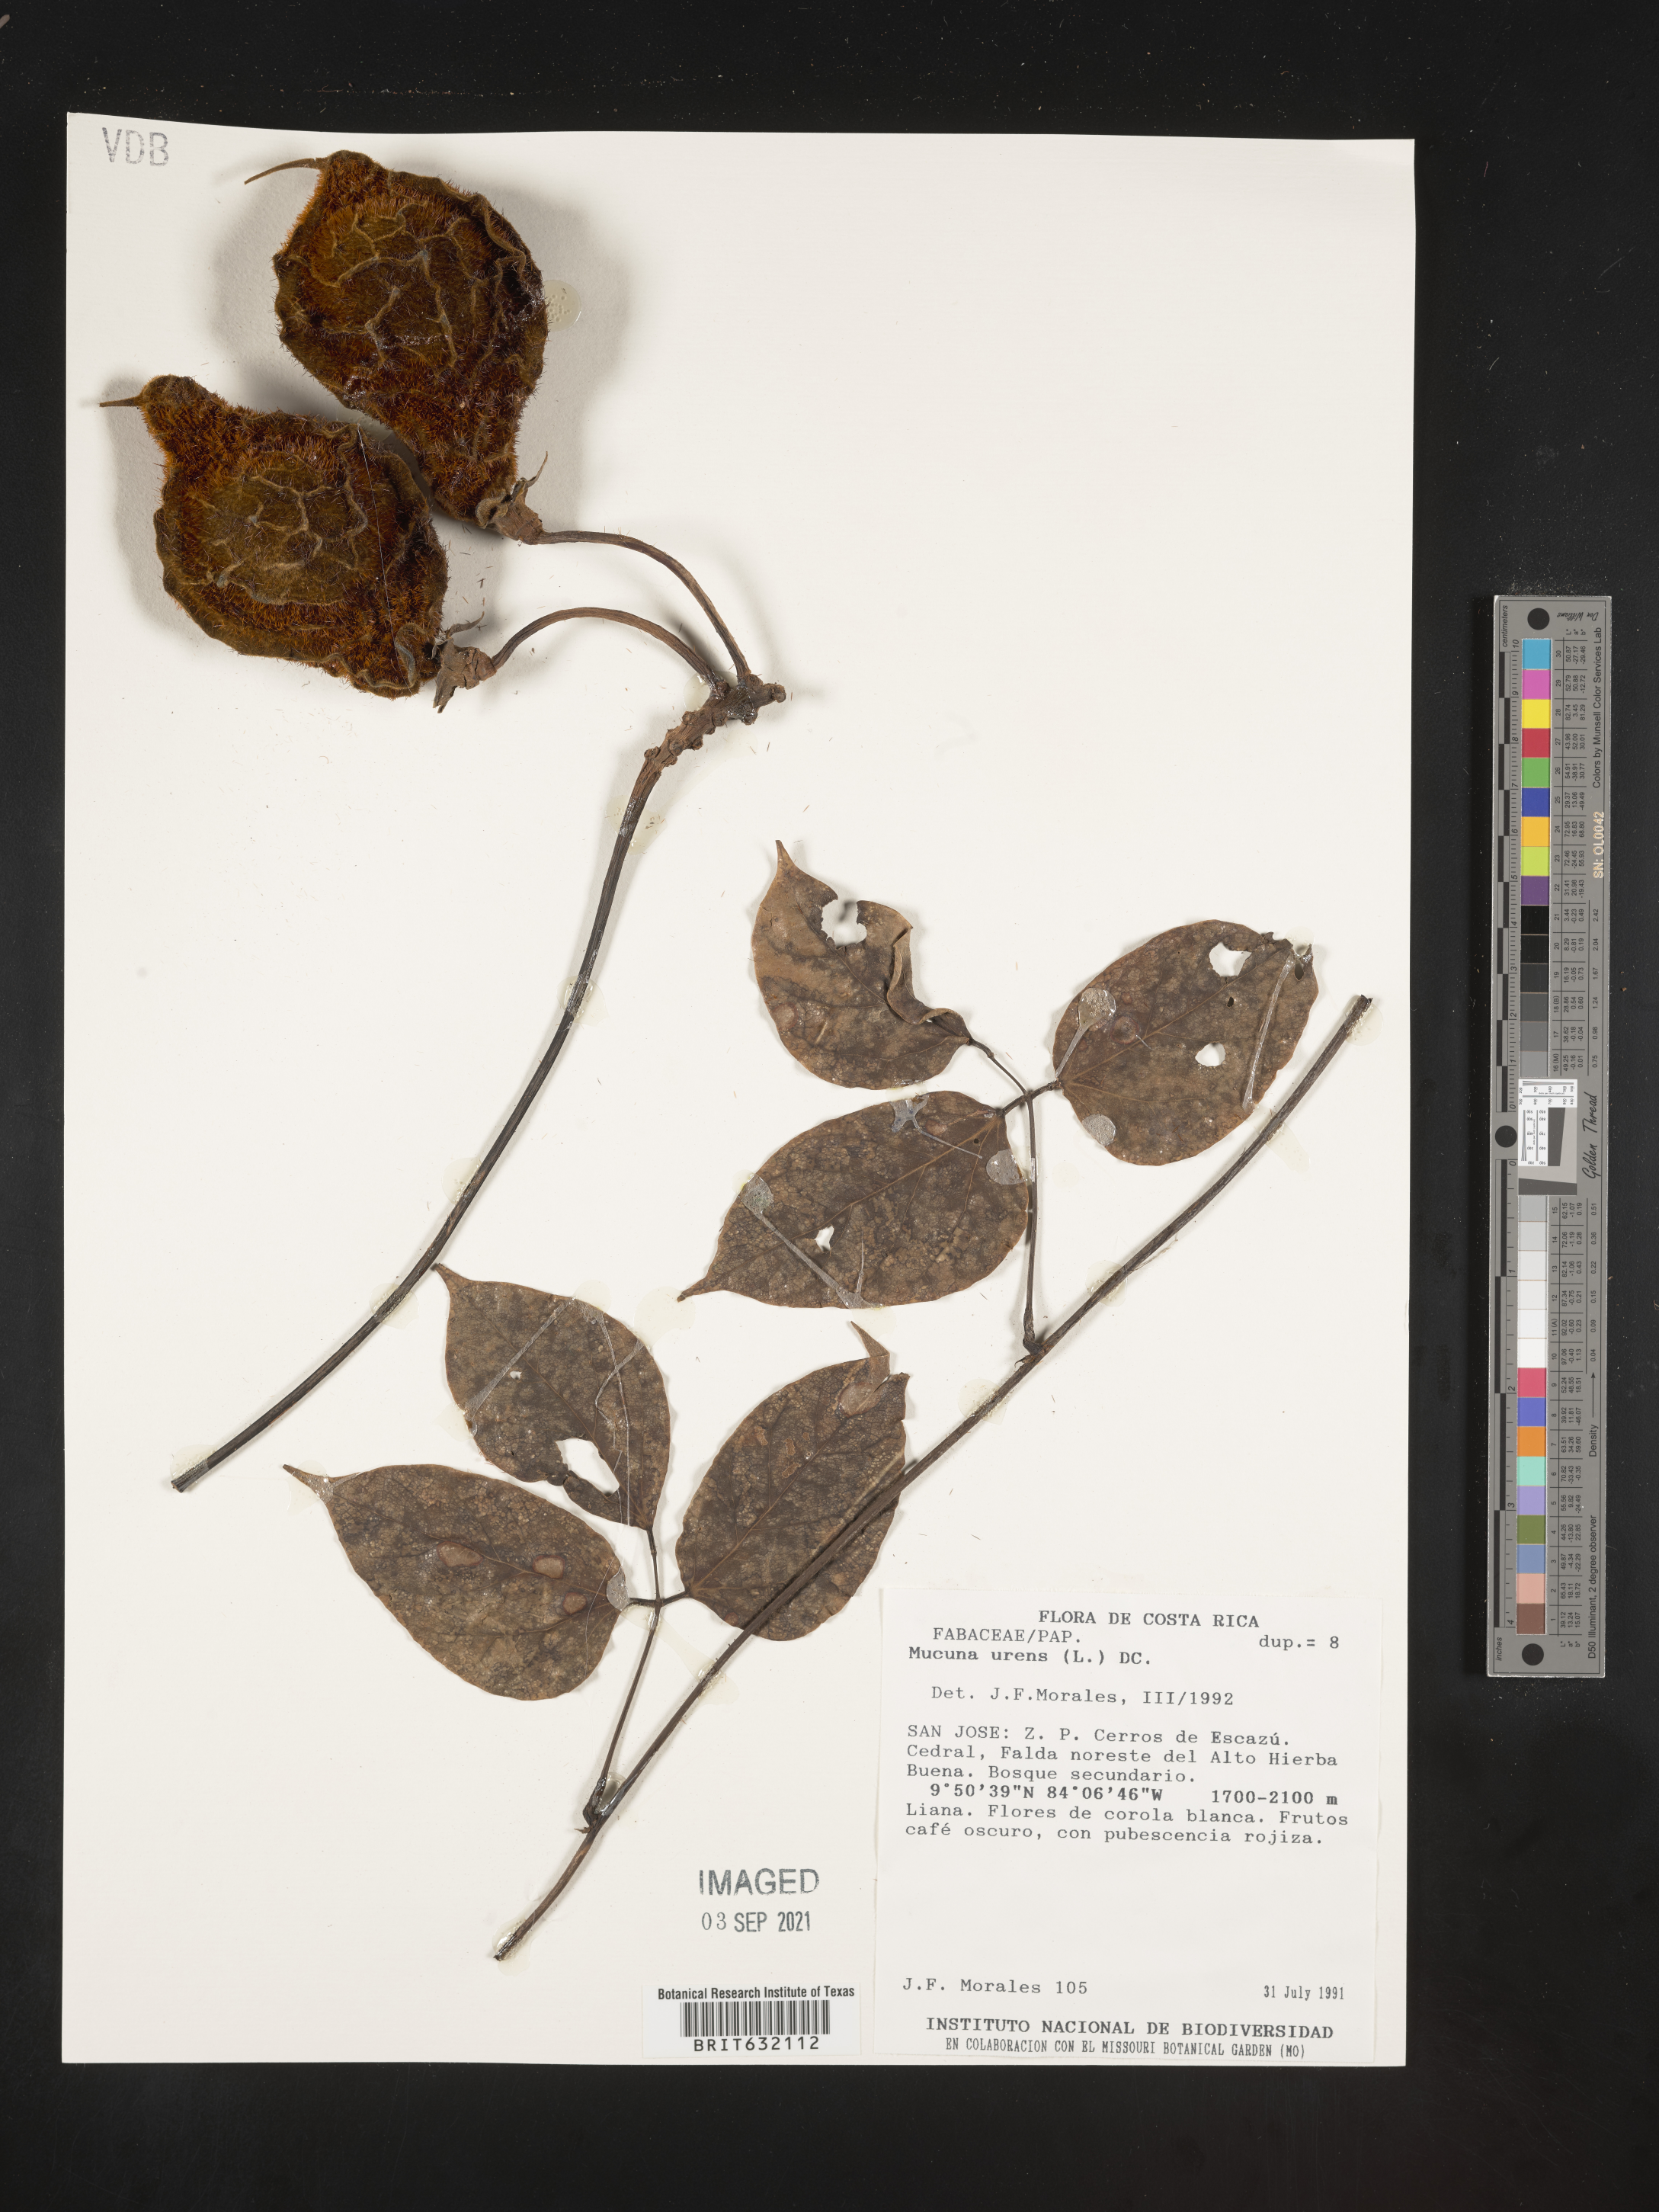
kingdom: Plantae
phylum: Tracheophyta
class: Magnoliopsida
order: Fabales
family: Fabaceae
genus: Mucuna
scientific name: Mucuna
